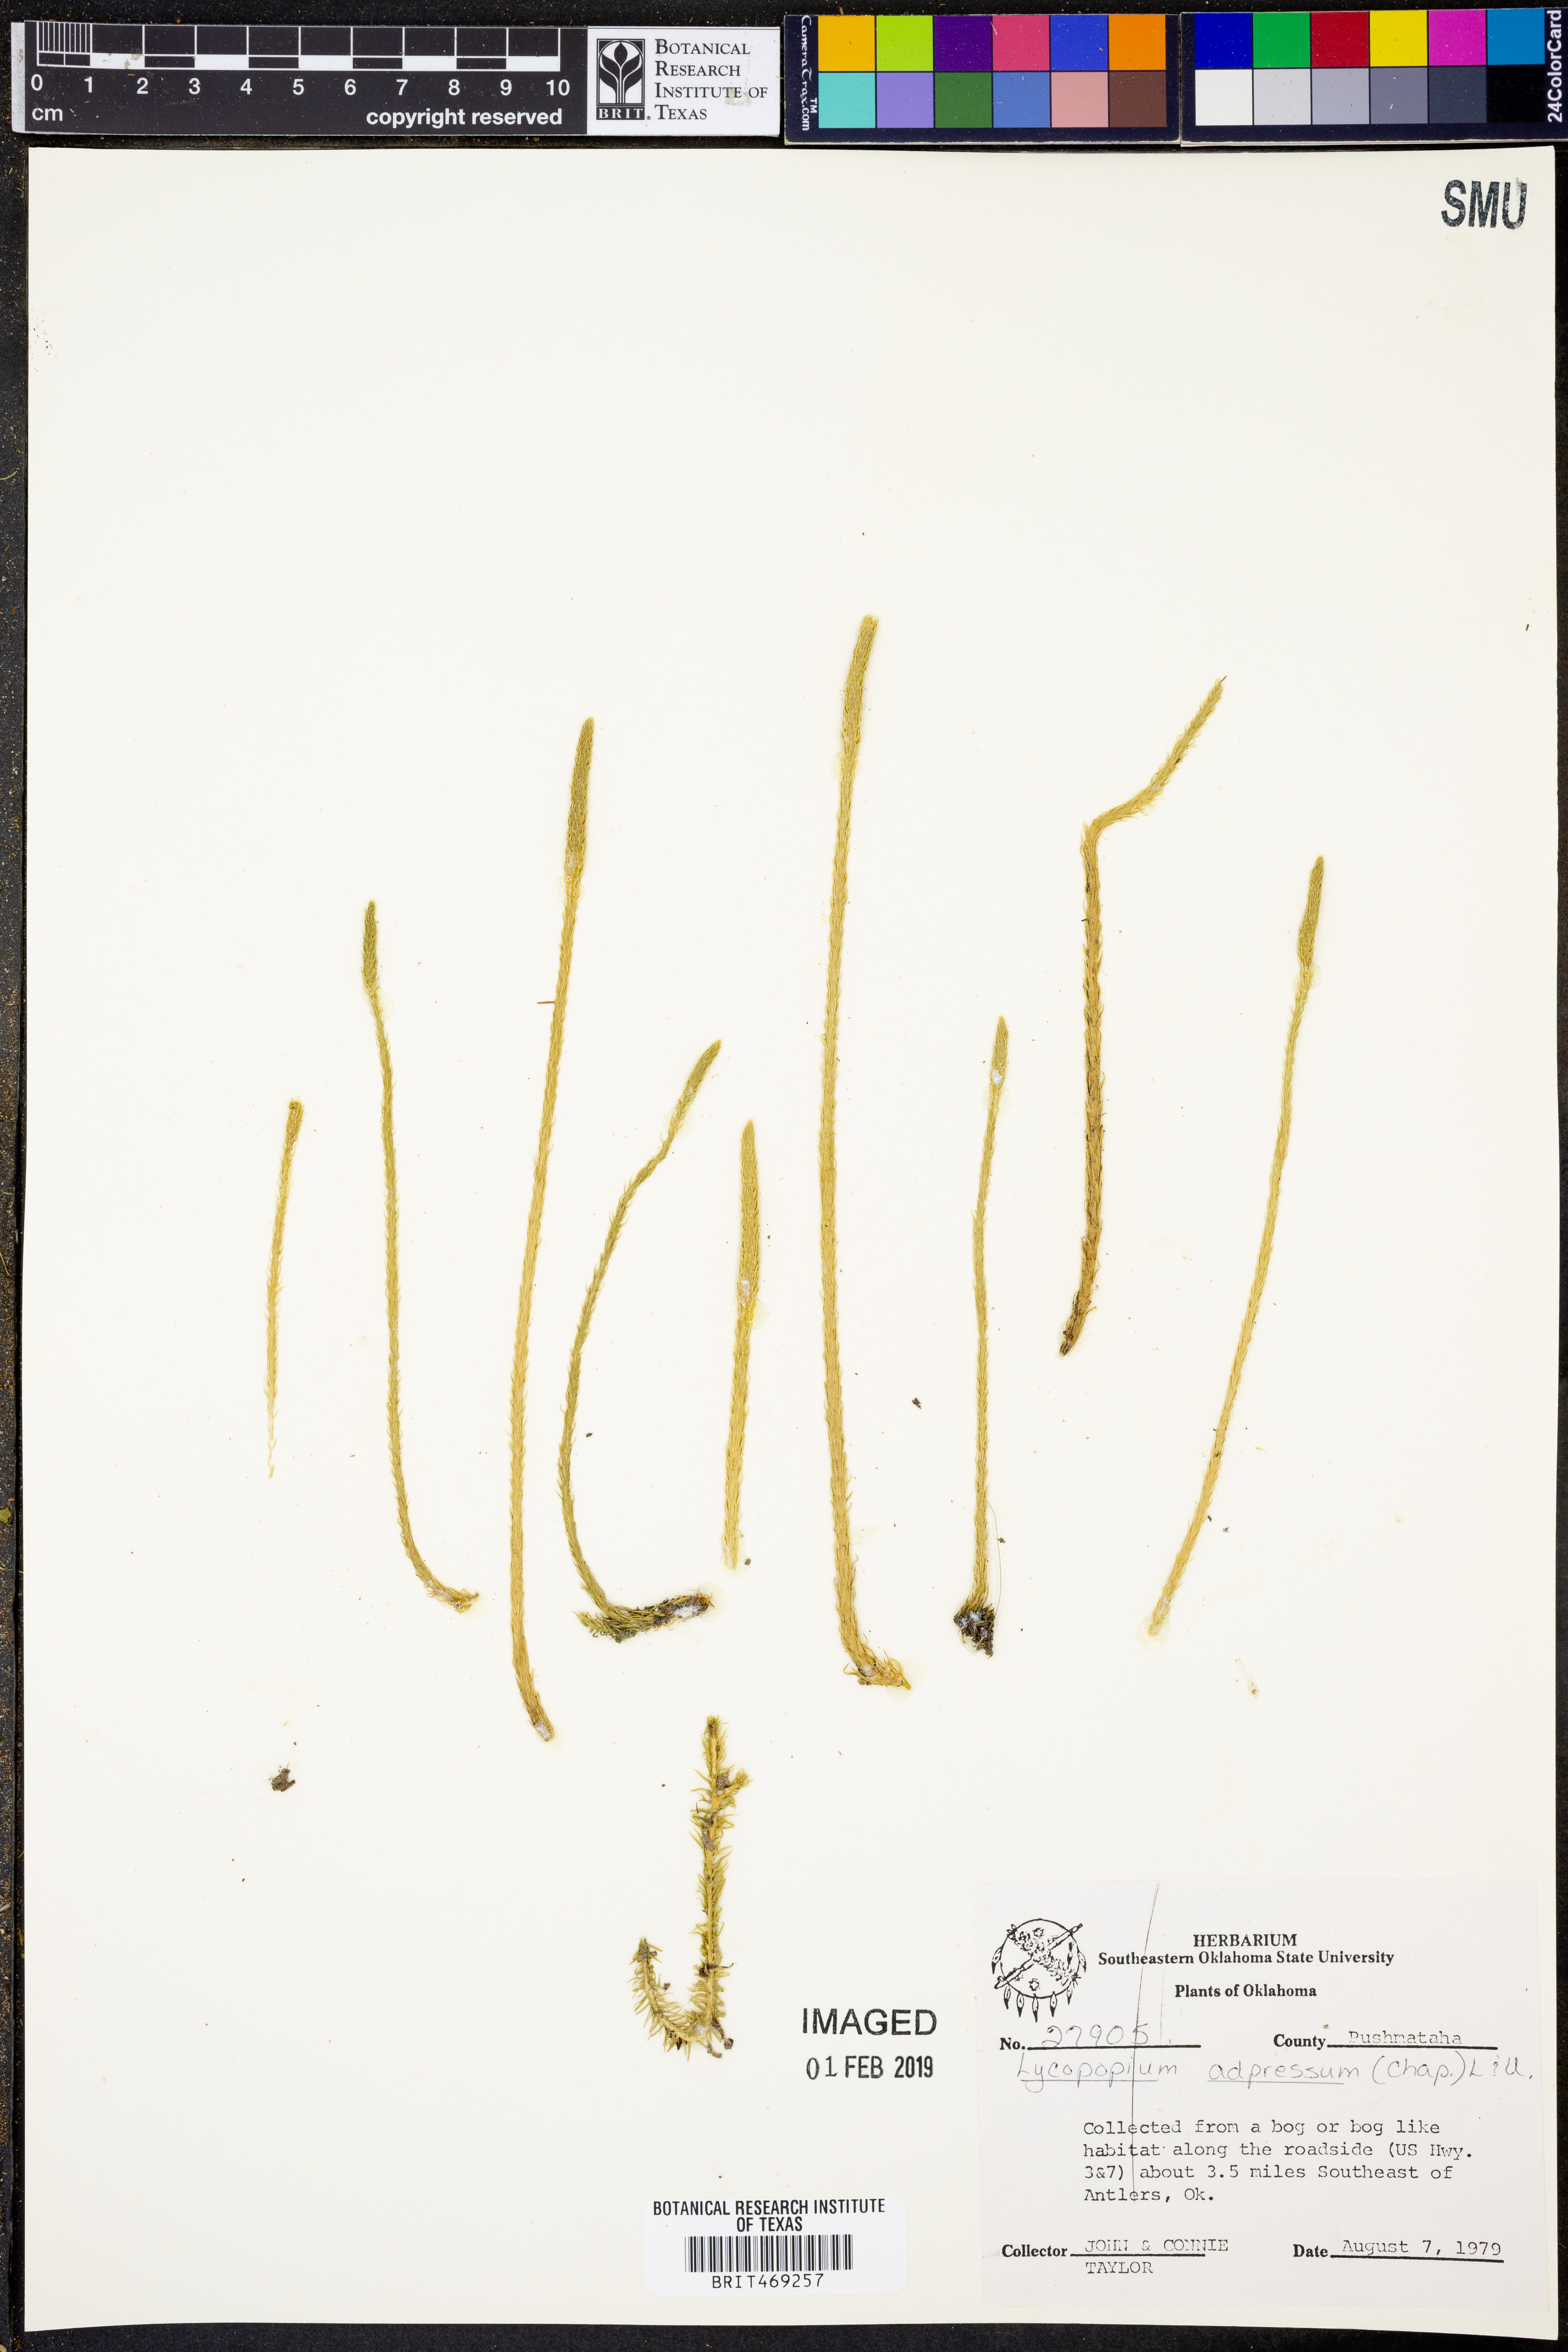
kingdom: Plantae
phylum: Tracheophyta
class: Lycopodiopsida
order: Lycopodiales
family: Lycopodiaceae
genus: Lycopodiella
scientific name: Lycopodiella appressa
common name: Appressed bog clubmoss
